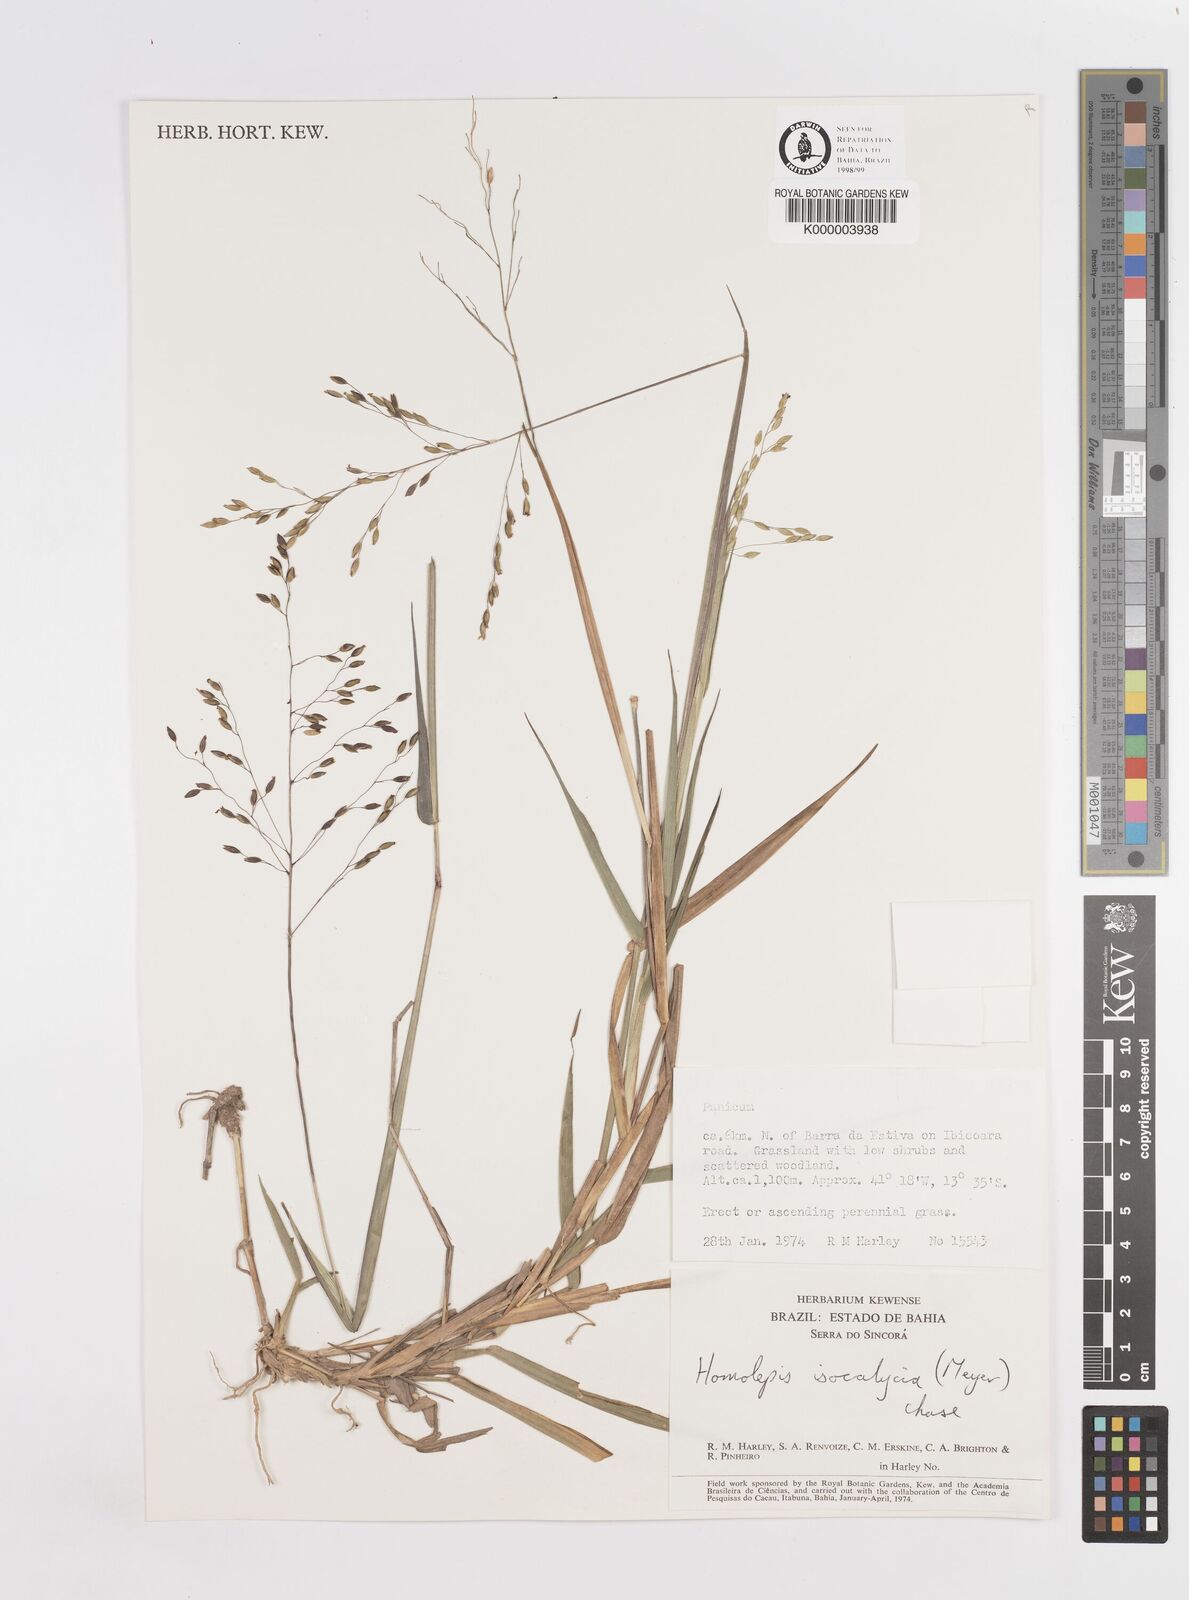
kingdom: Plantae
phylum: Tracheophyta
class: Liliopsida
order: Poales
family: Poaceae
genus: Homolepis
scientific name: Homolepis
